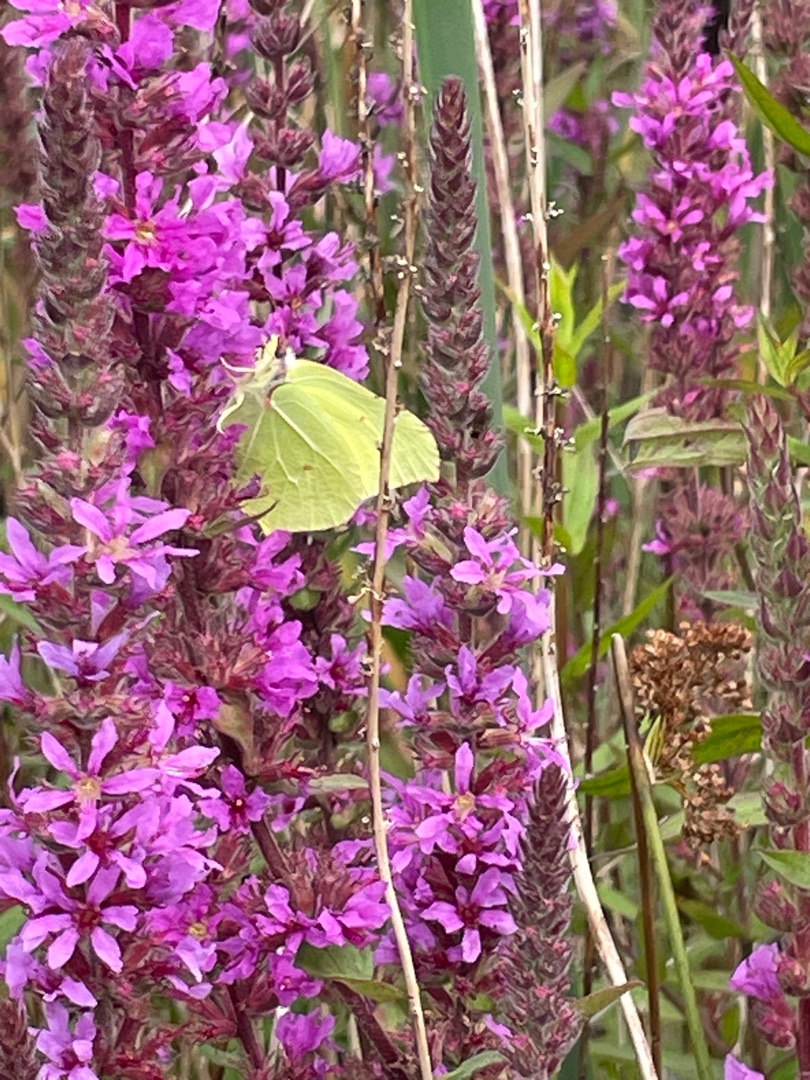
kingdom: Animalia
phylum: Arthropoda
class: Insecta
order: Lepidoptera
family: Pieridae
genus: Gonepteryx
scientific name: Gonepteryx rhamni
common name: Citronsommerfugl
